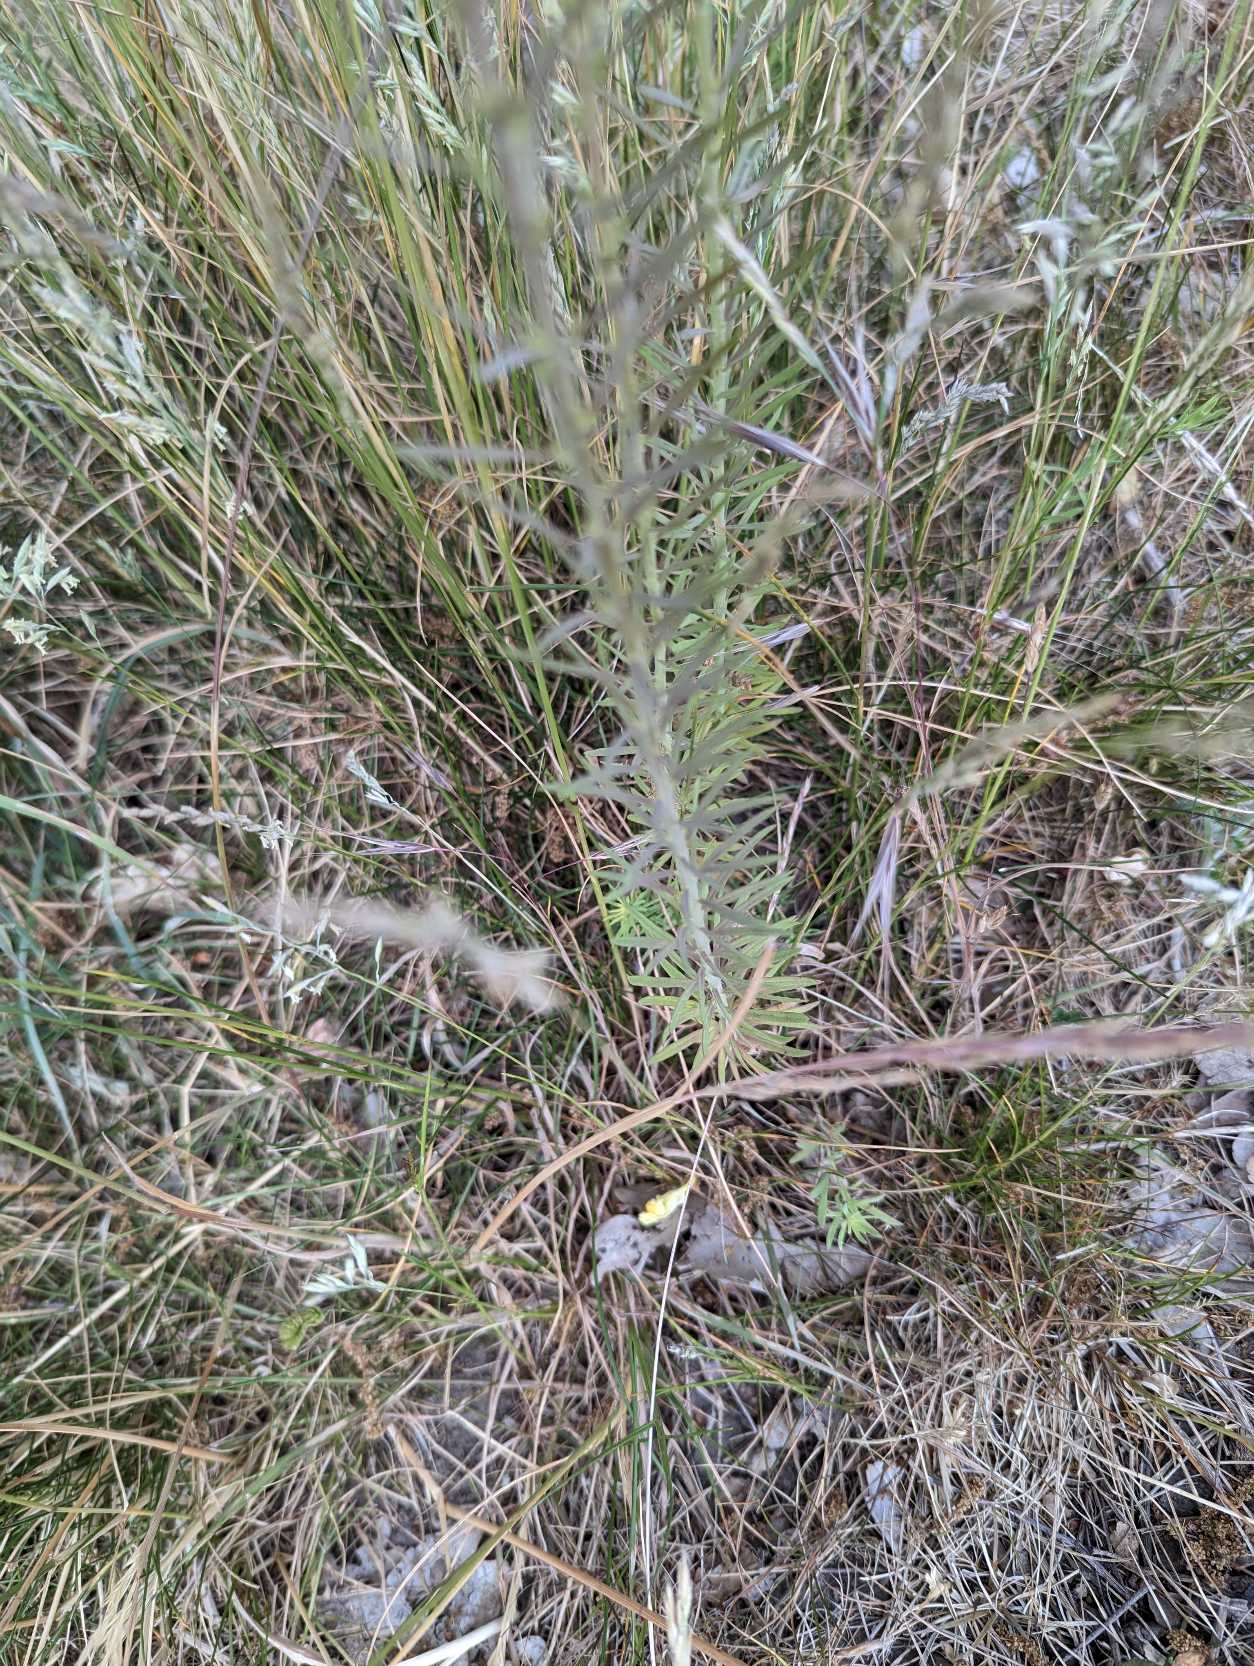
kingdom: Plantae
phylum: Tracheophyta
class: Magnoliopsida
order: Lamiales
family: Plantaginaceae
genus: Linaria
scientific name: Linaria vulgaris
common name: Almindelig torskemund
